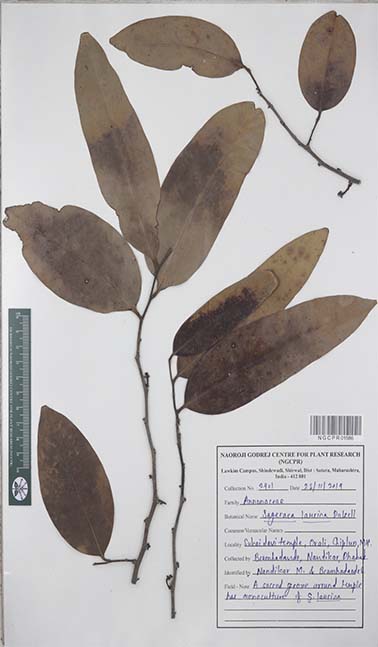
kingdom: Plantae
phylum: Tracheophyta
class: Magnoliopsida
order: Magnoliales
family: Annonaceae
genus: Sageraea
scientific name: Sageraea laurina
